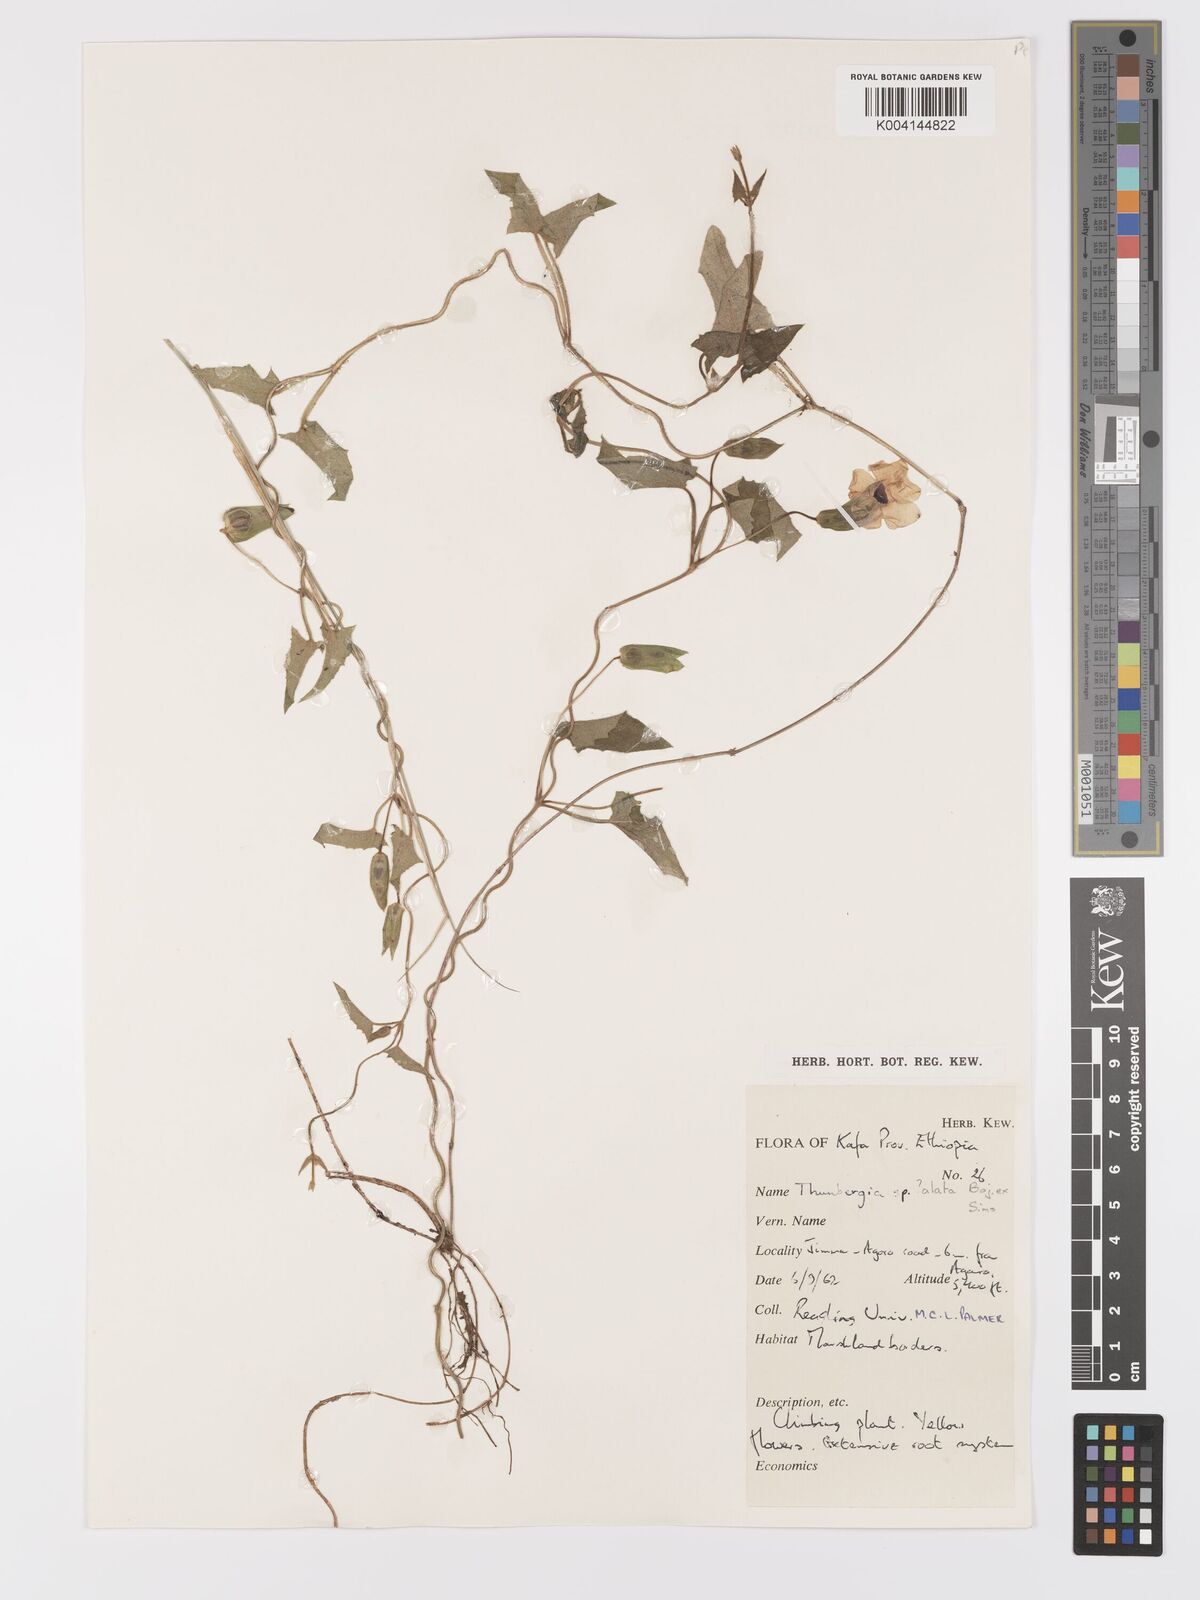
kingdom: Plantae
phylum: Tracheophyta
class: Magnoliopsida
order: Lamiales
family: Acanthaceae
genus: Thunbergia
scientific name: Thunbergia alata
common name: Blackeyed susan vine
